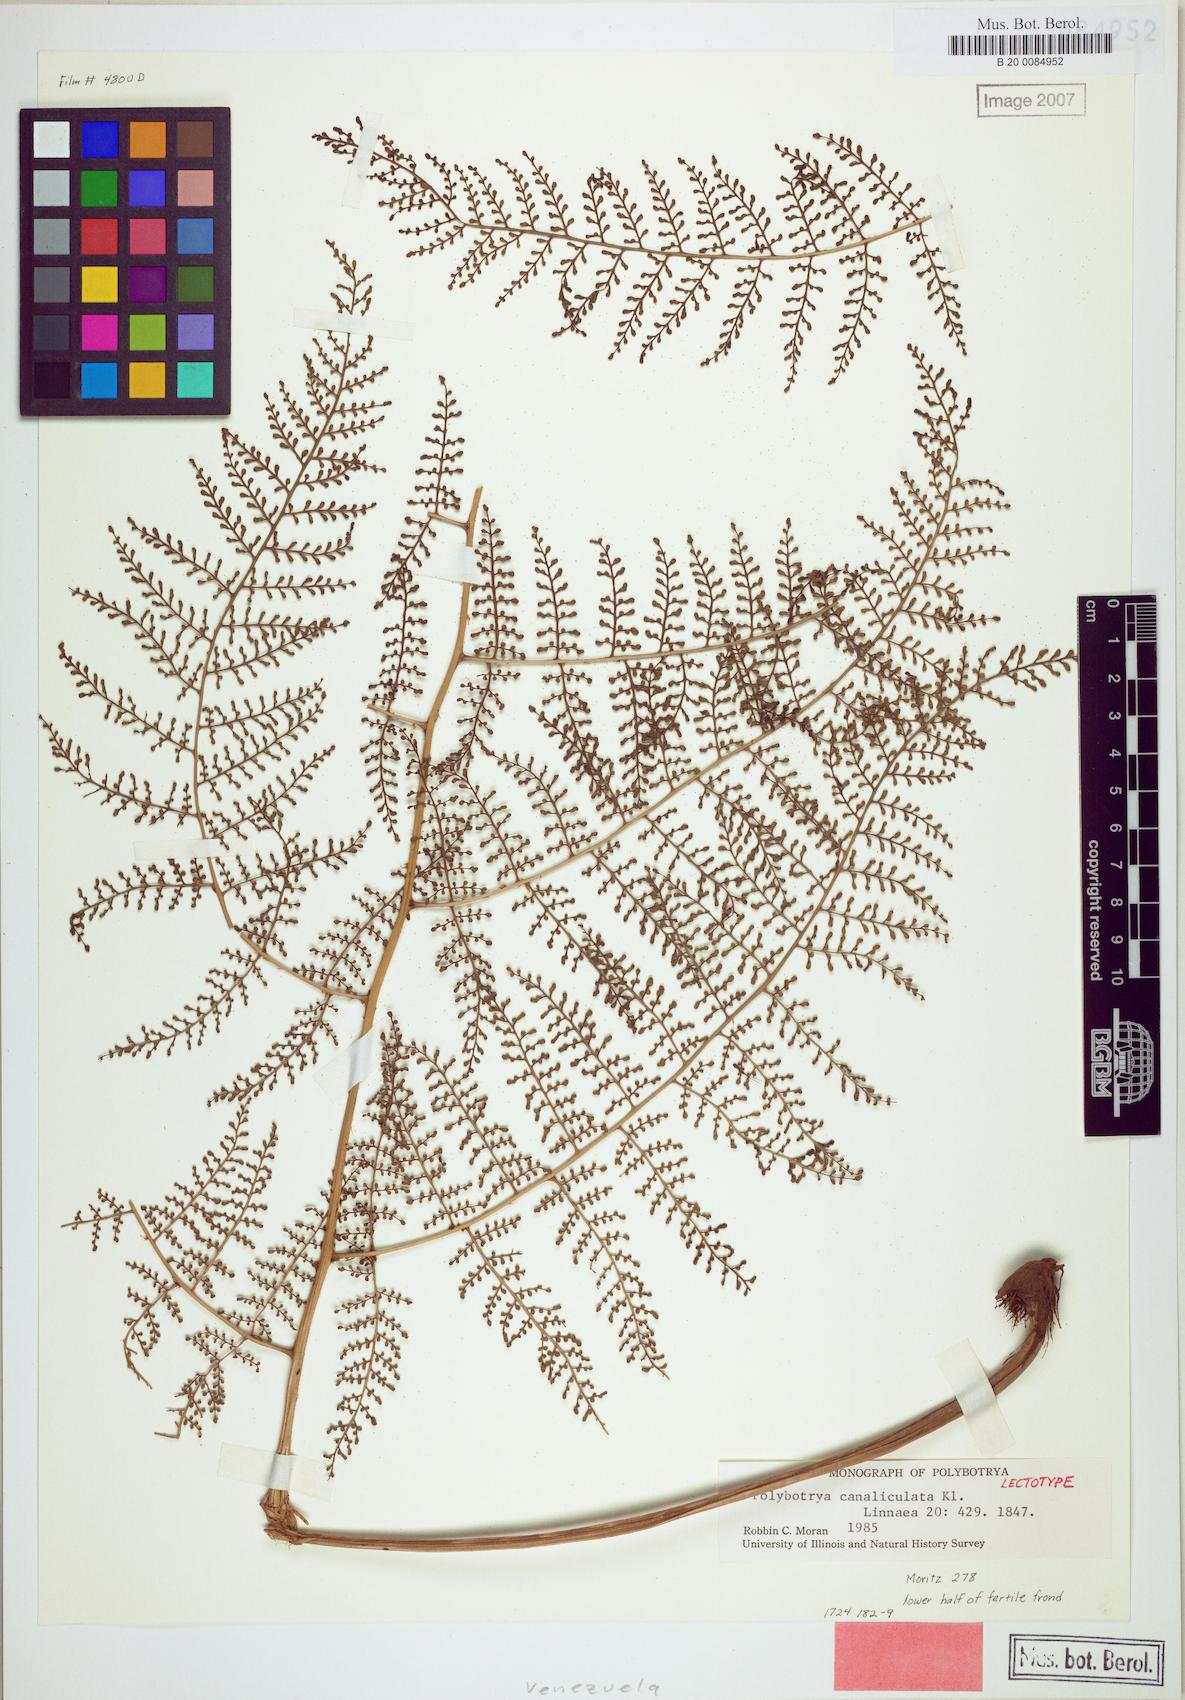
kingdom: Plantae
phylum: Tracheophyta
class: Polypodiopsida
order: Polypodiales
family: Dryopteridaceae
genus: Polybotrya
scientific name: Polybotrya canaliculata
